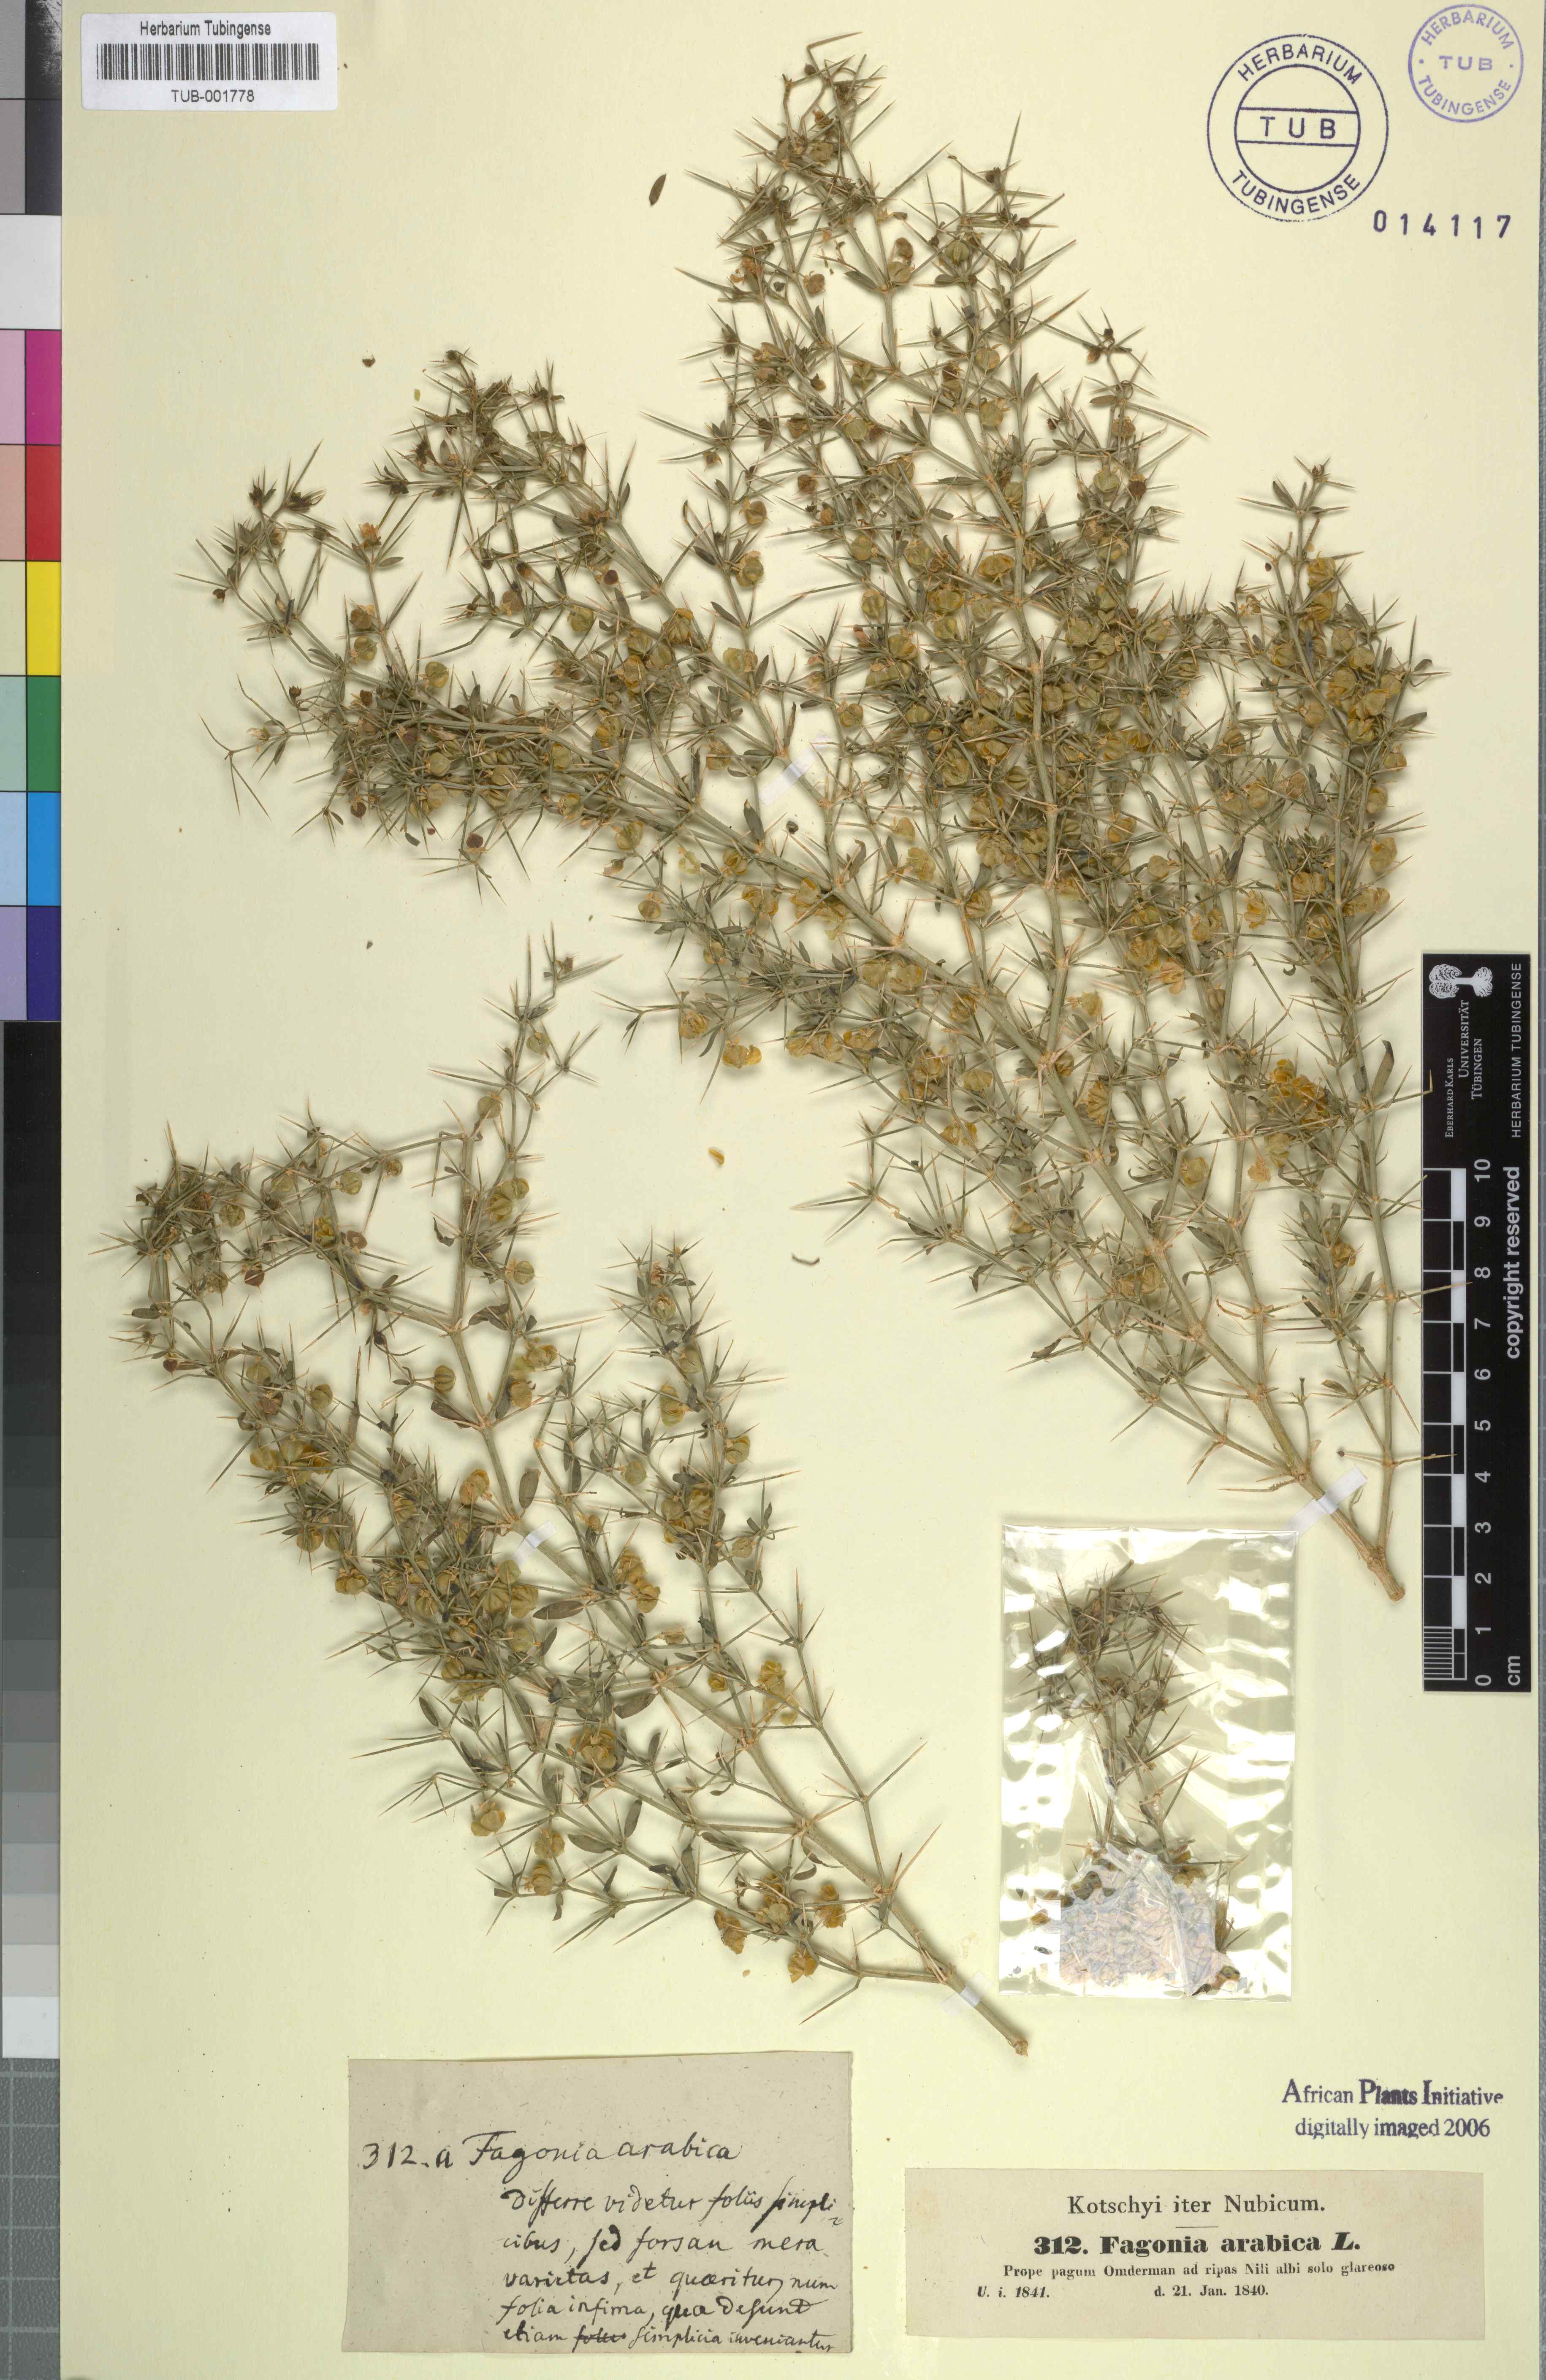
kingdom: Plantae
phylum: Tracheophyta
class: Magnoliopsida
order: Zygophyllales
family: Zygophyllaceae
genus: Fagonia
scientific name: Fagonia cretica
